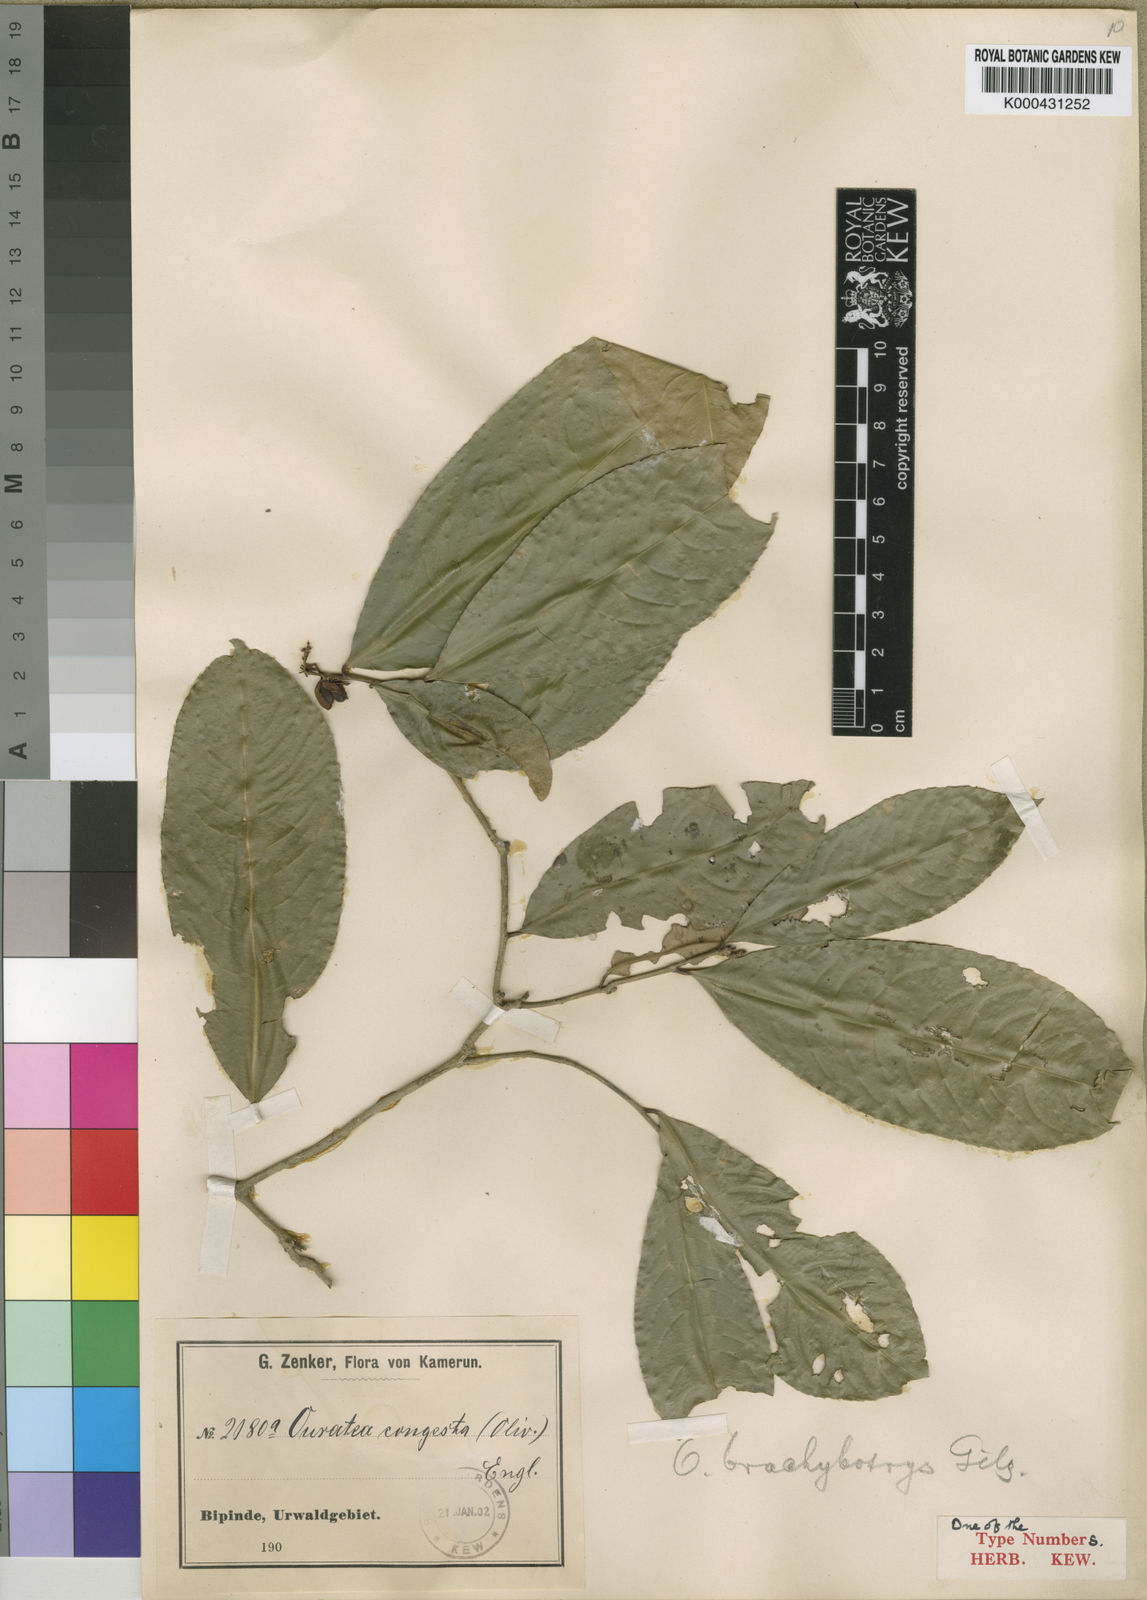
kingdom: Plantae
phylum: Tracheophyta
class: Magnoliopsida
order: Malpighiales
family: Ochnaceae
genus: Campylospermum
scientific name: Campylospermum glaucum
